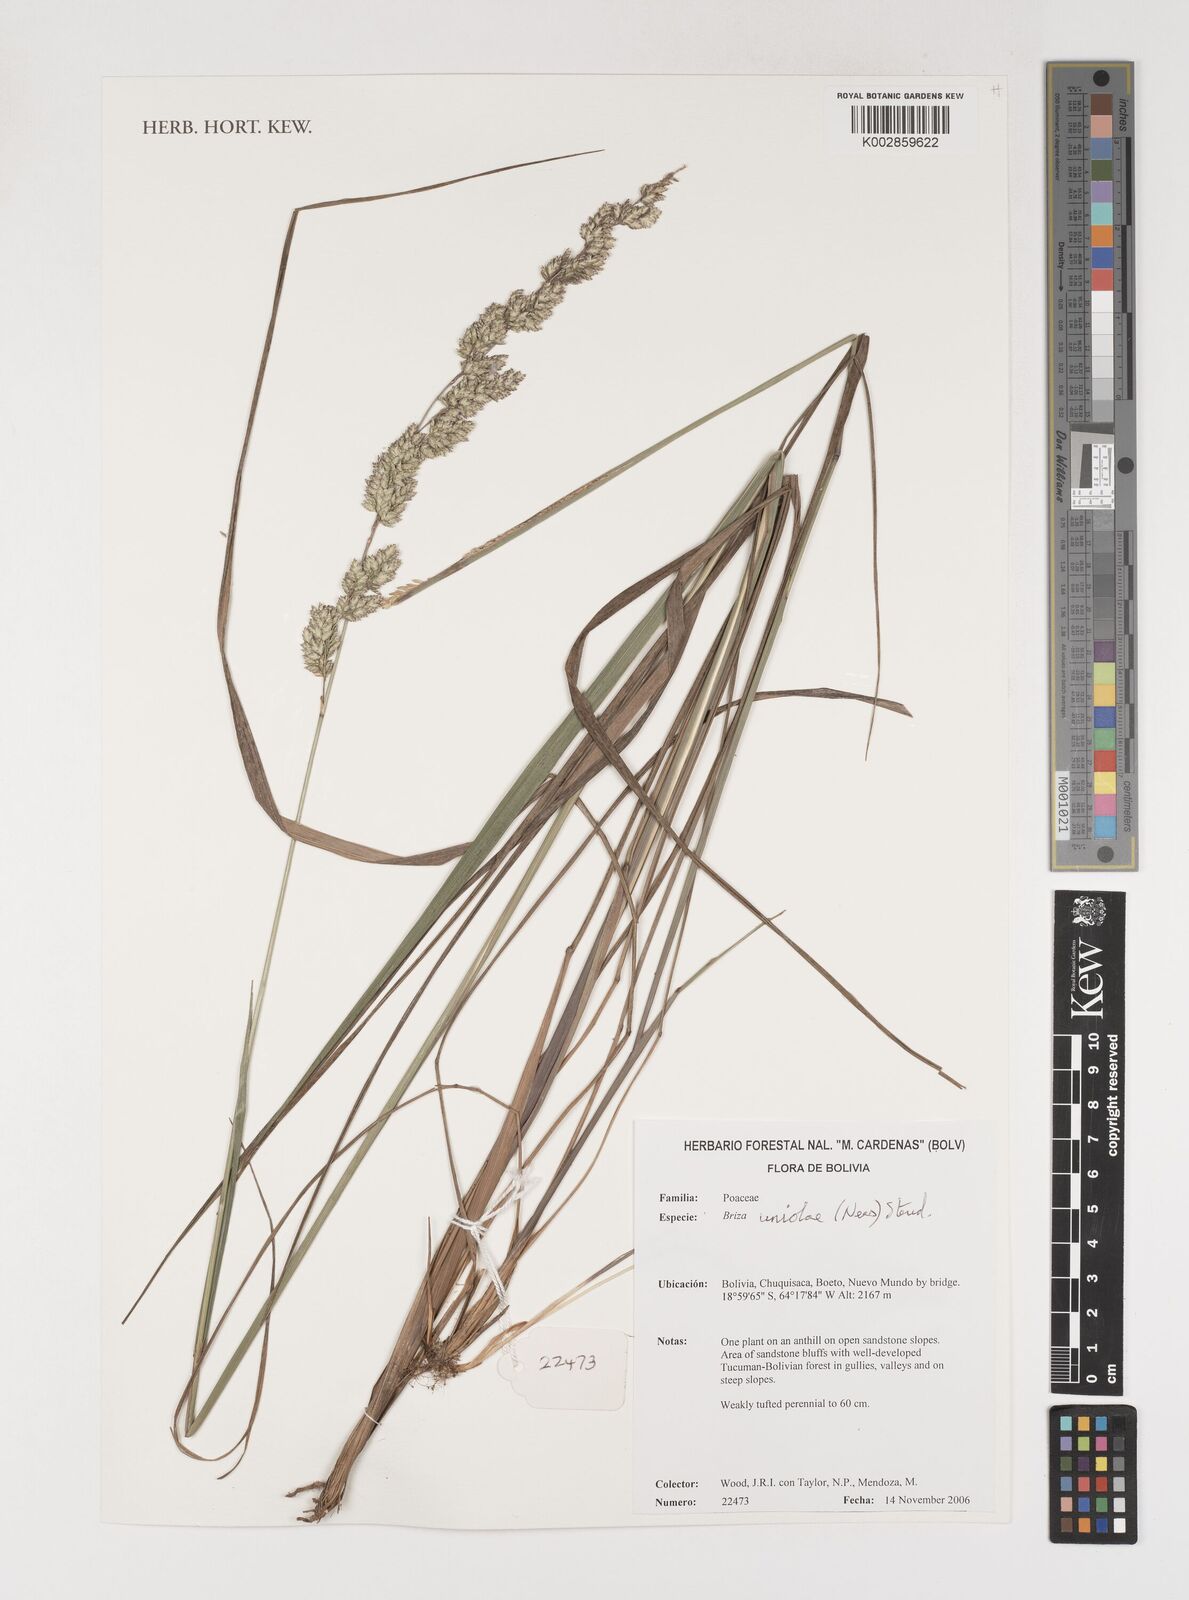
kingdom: Plantae
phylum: Tracheophyta
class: Liliopsida
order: Poales
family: Poaceae
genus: Poidium
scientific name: Poidium uniolae
